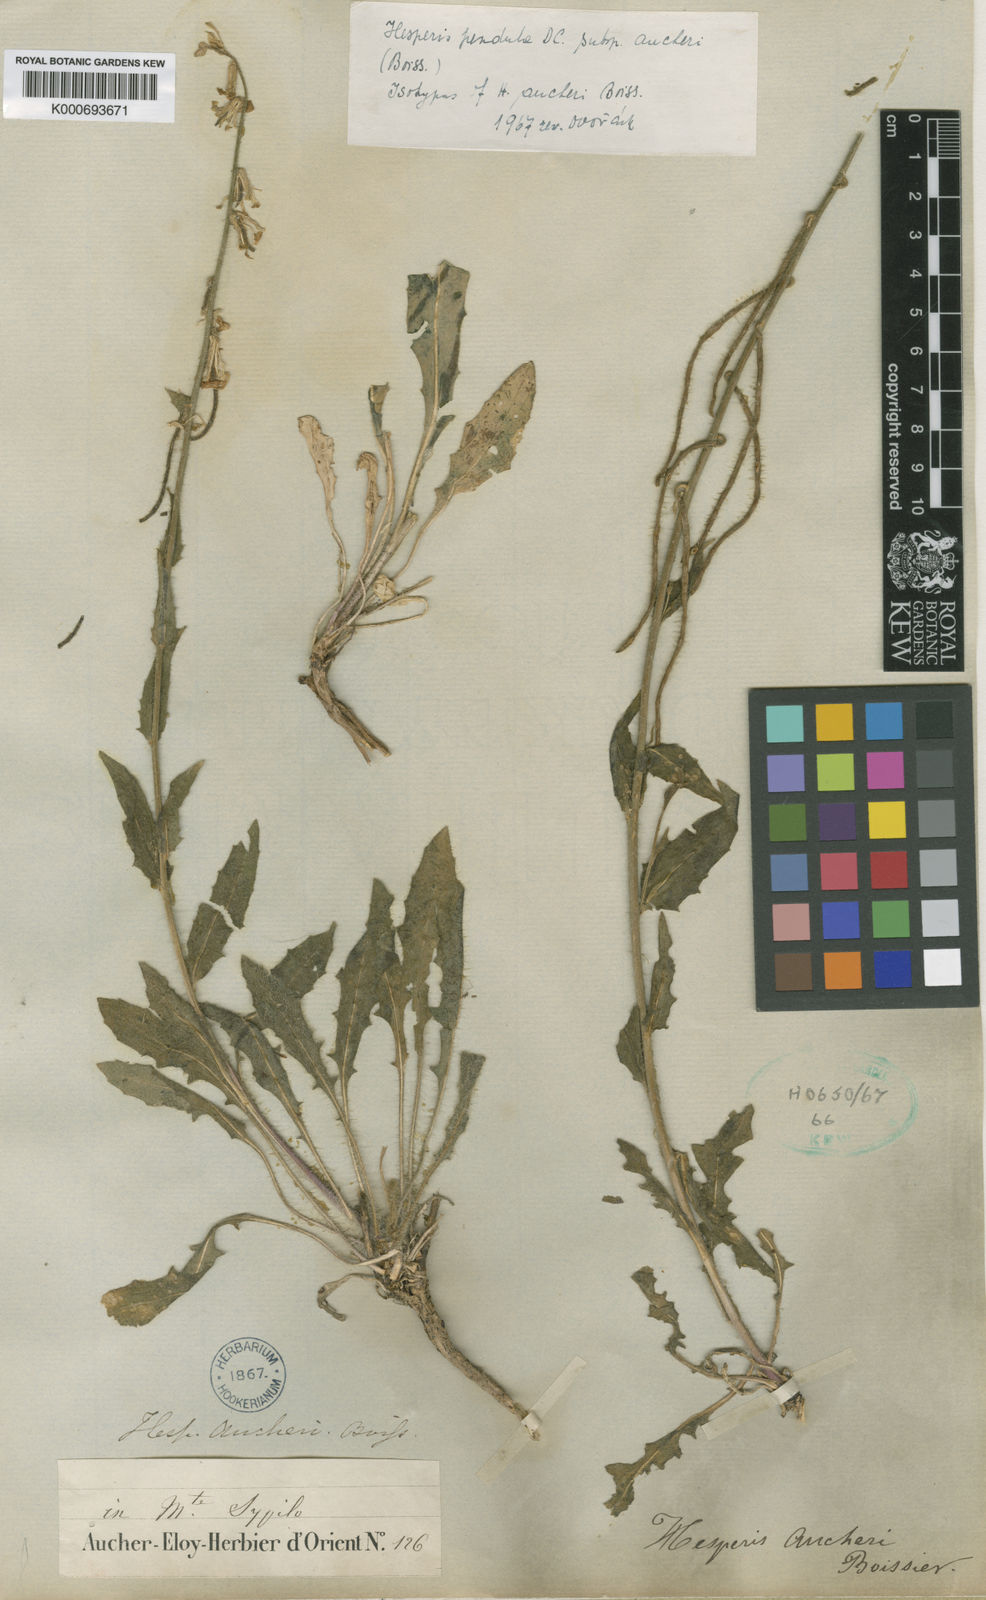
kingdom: Plantae
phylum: Tracheophyta
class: Magnoliopsida
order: Brassicales
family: Brassicaceae
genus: Hesperis
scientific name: Hesperis pendula
